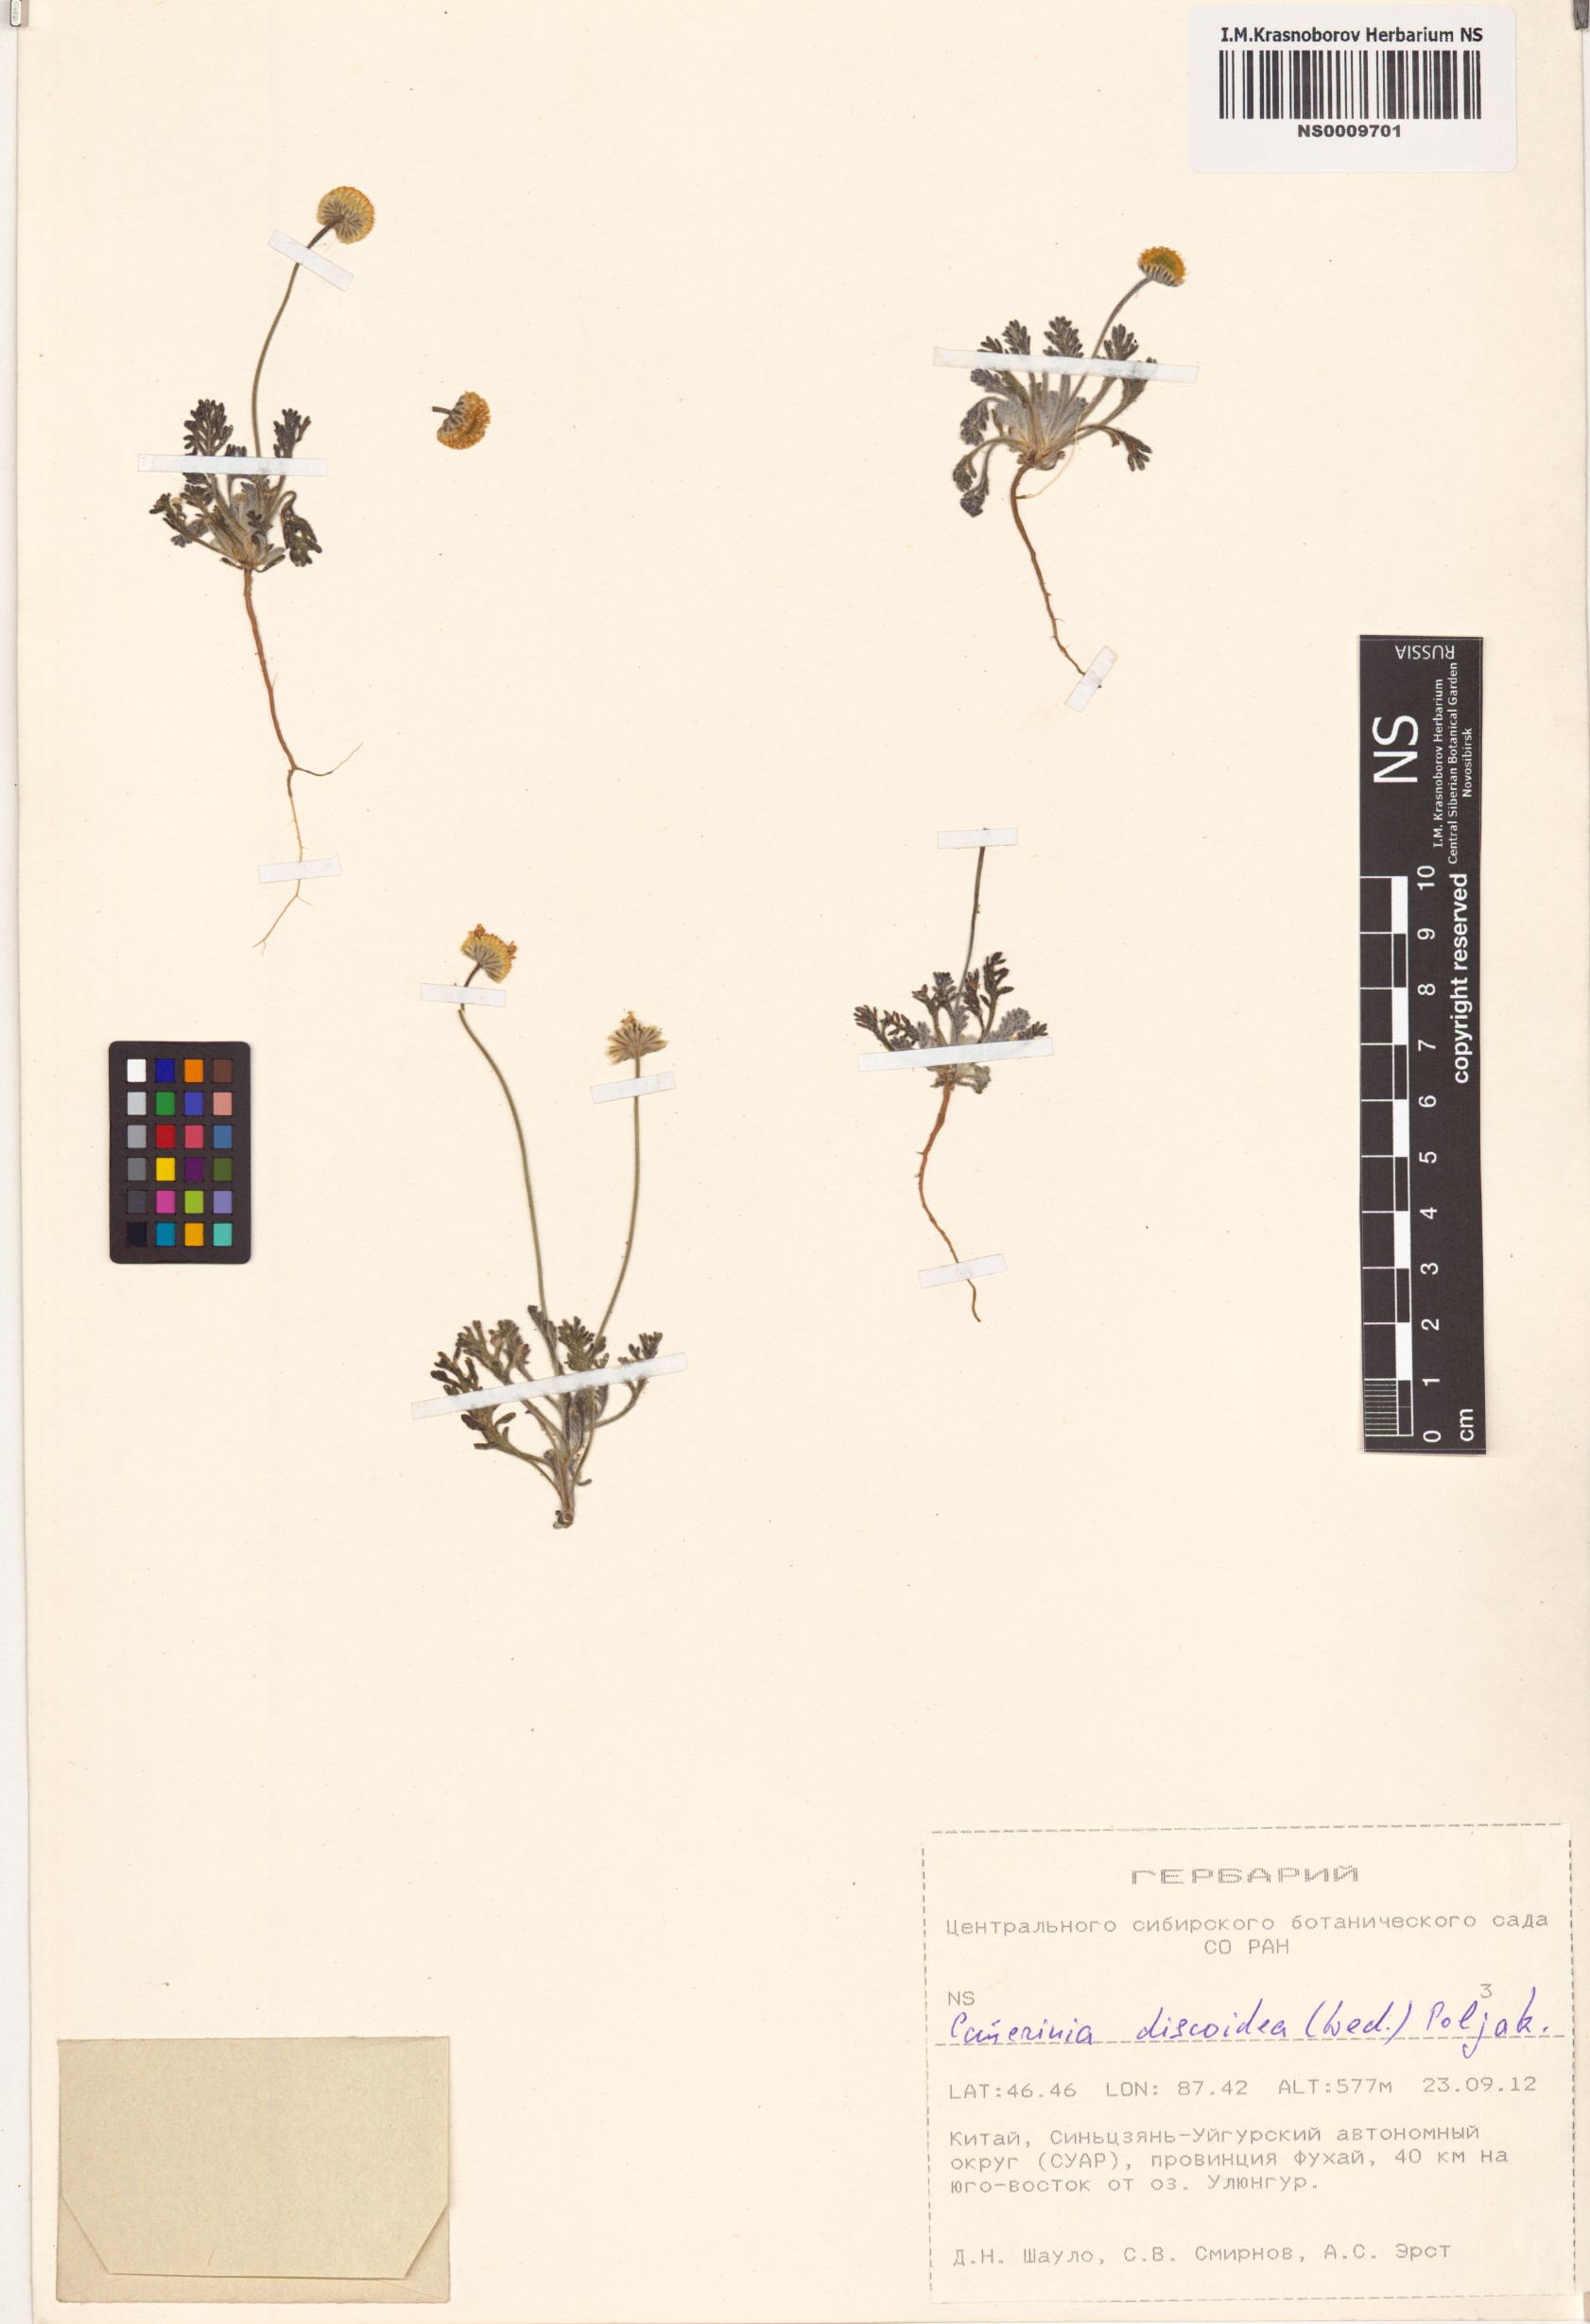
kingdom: Plantae
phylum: Tracheophyta
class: Magnoliopsida
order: Asterales
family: Asteraceae
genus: Cancrinia
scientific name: Cancrinia discoidea
